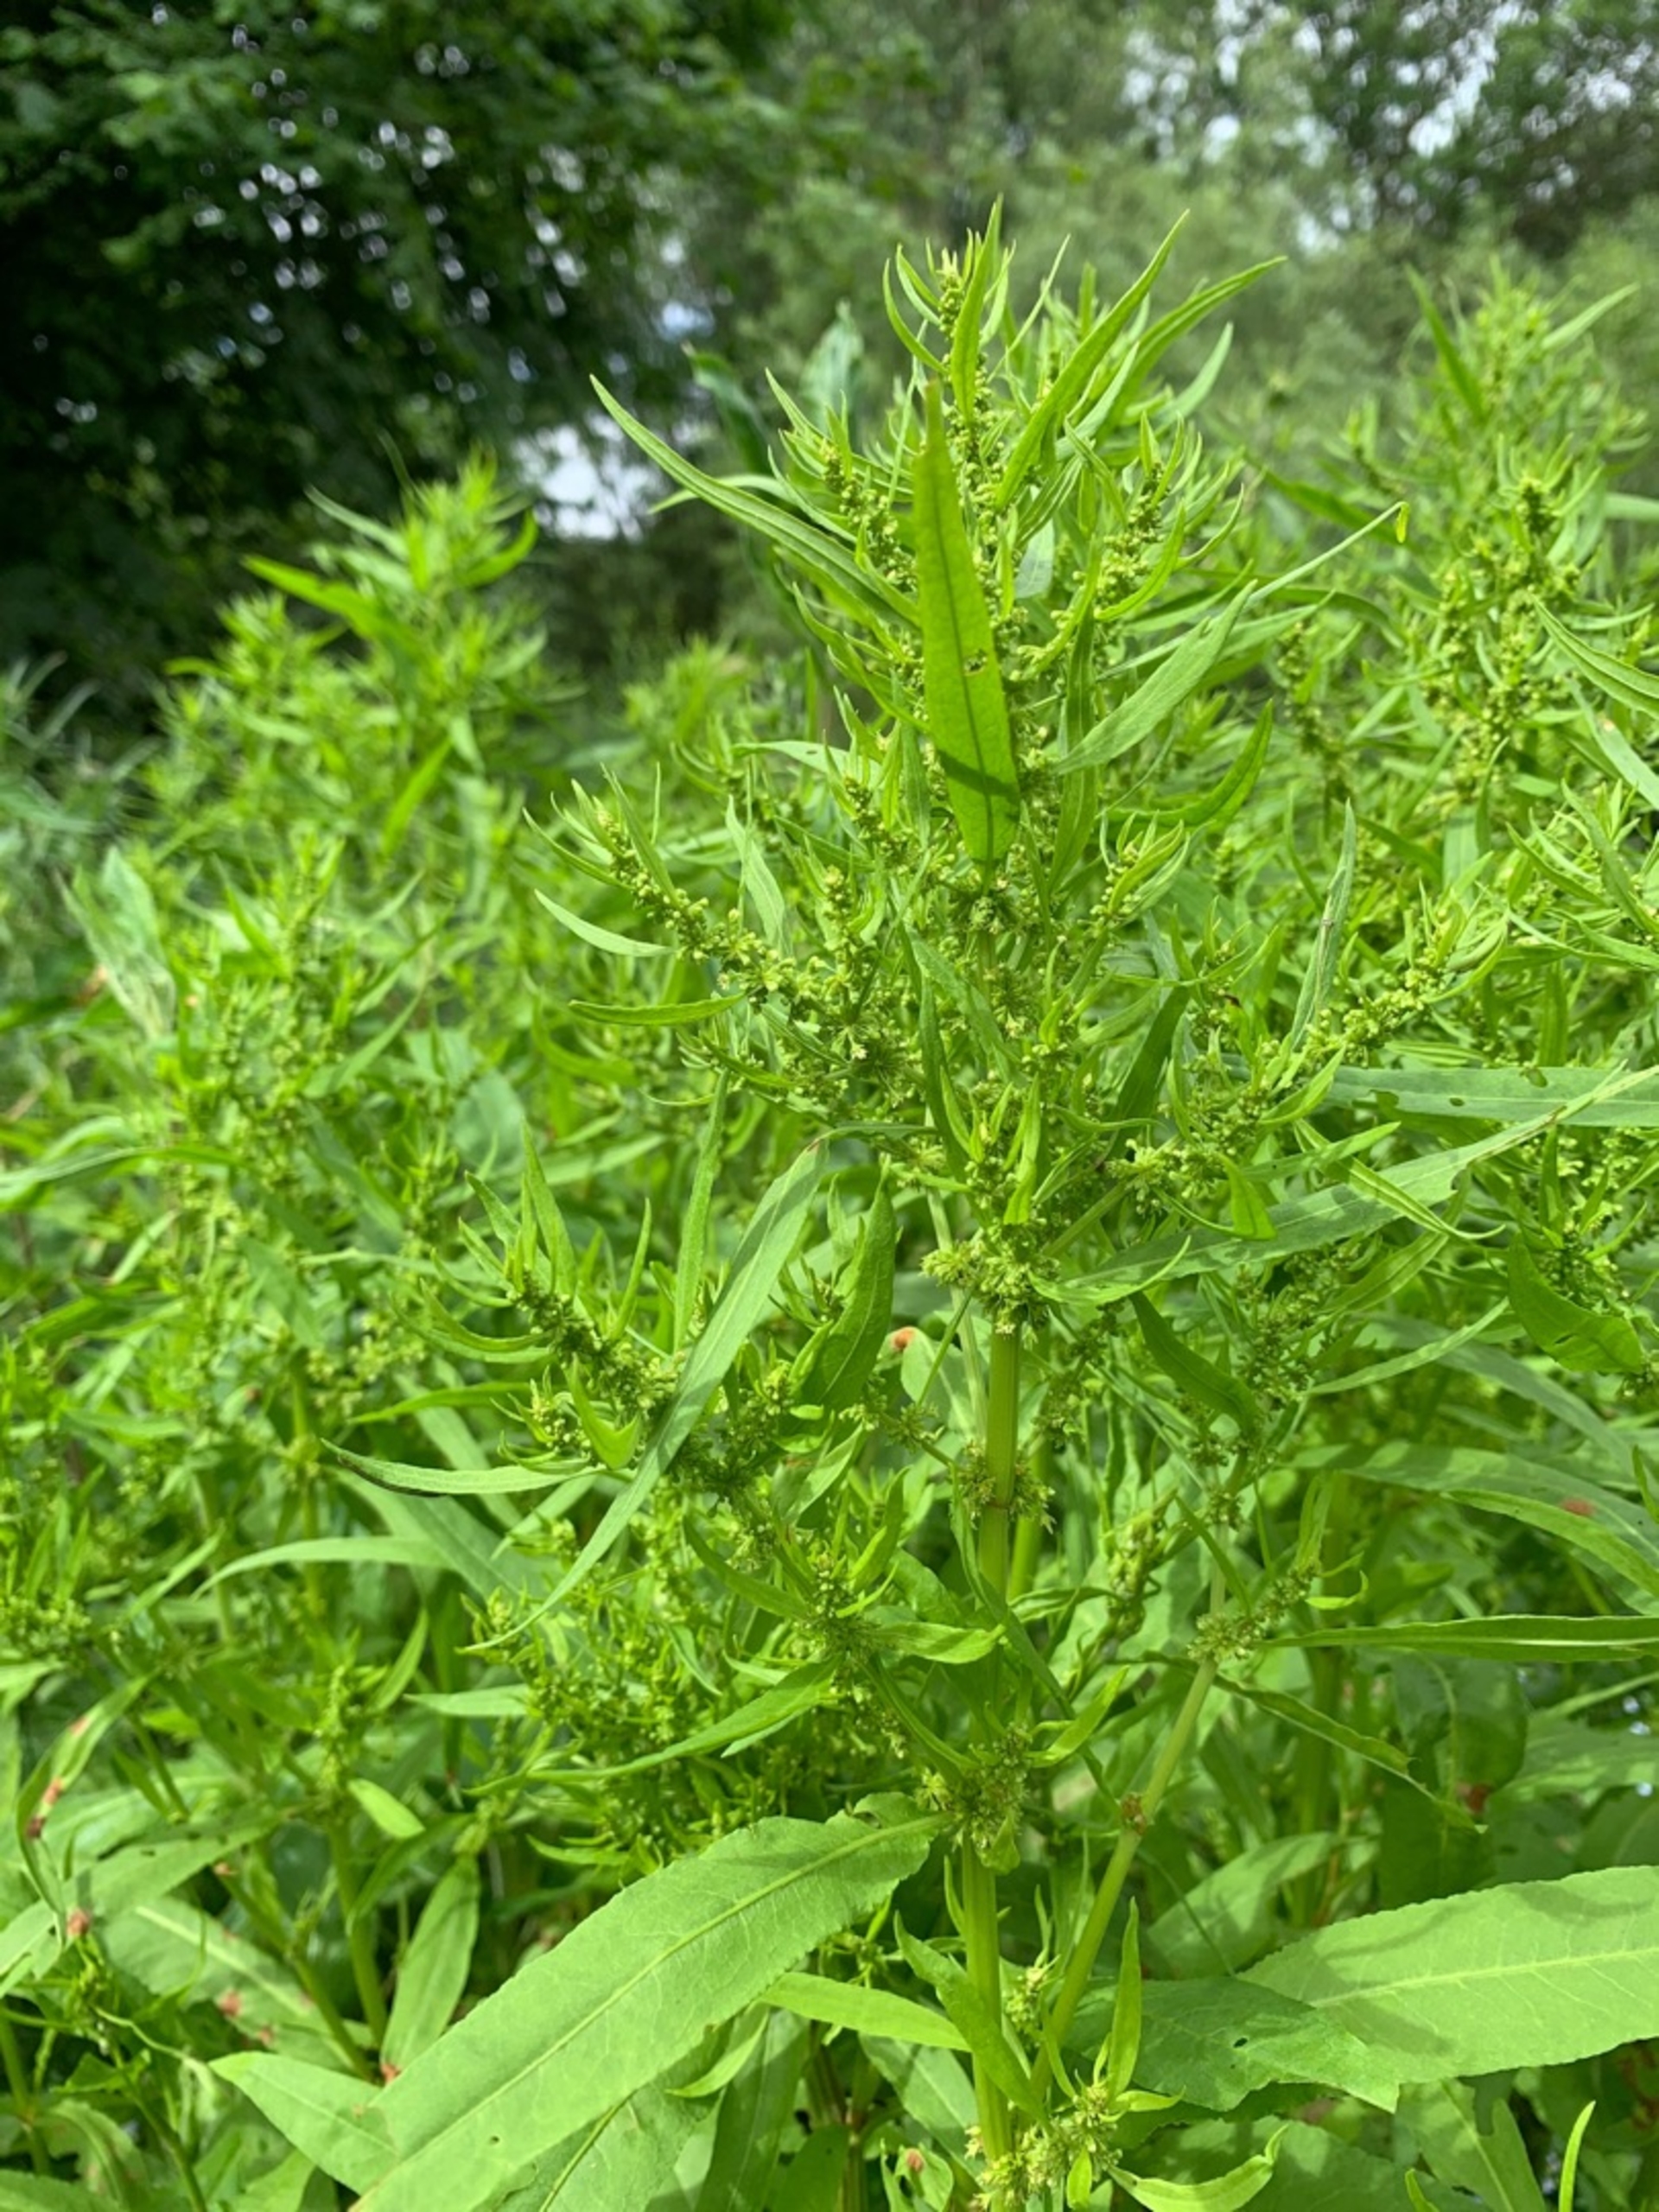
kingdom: Plantae
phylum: Tracheophyta
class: Magnoliopsida
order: Caryophyllales
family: Polygonaceae
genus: Rumex
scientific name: Rumex maritimus
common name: Strand-skræppe
